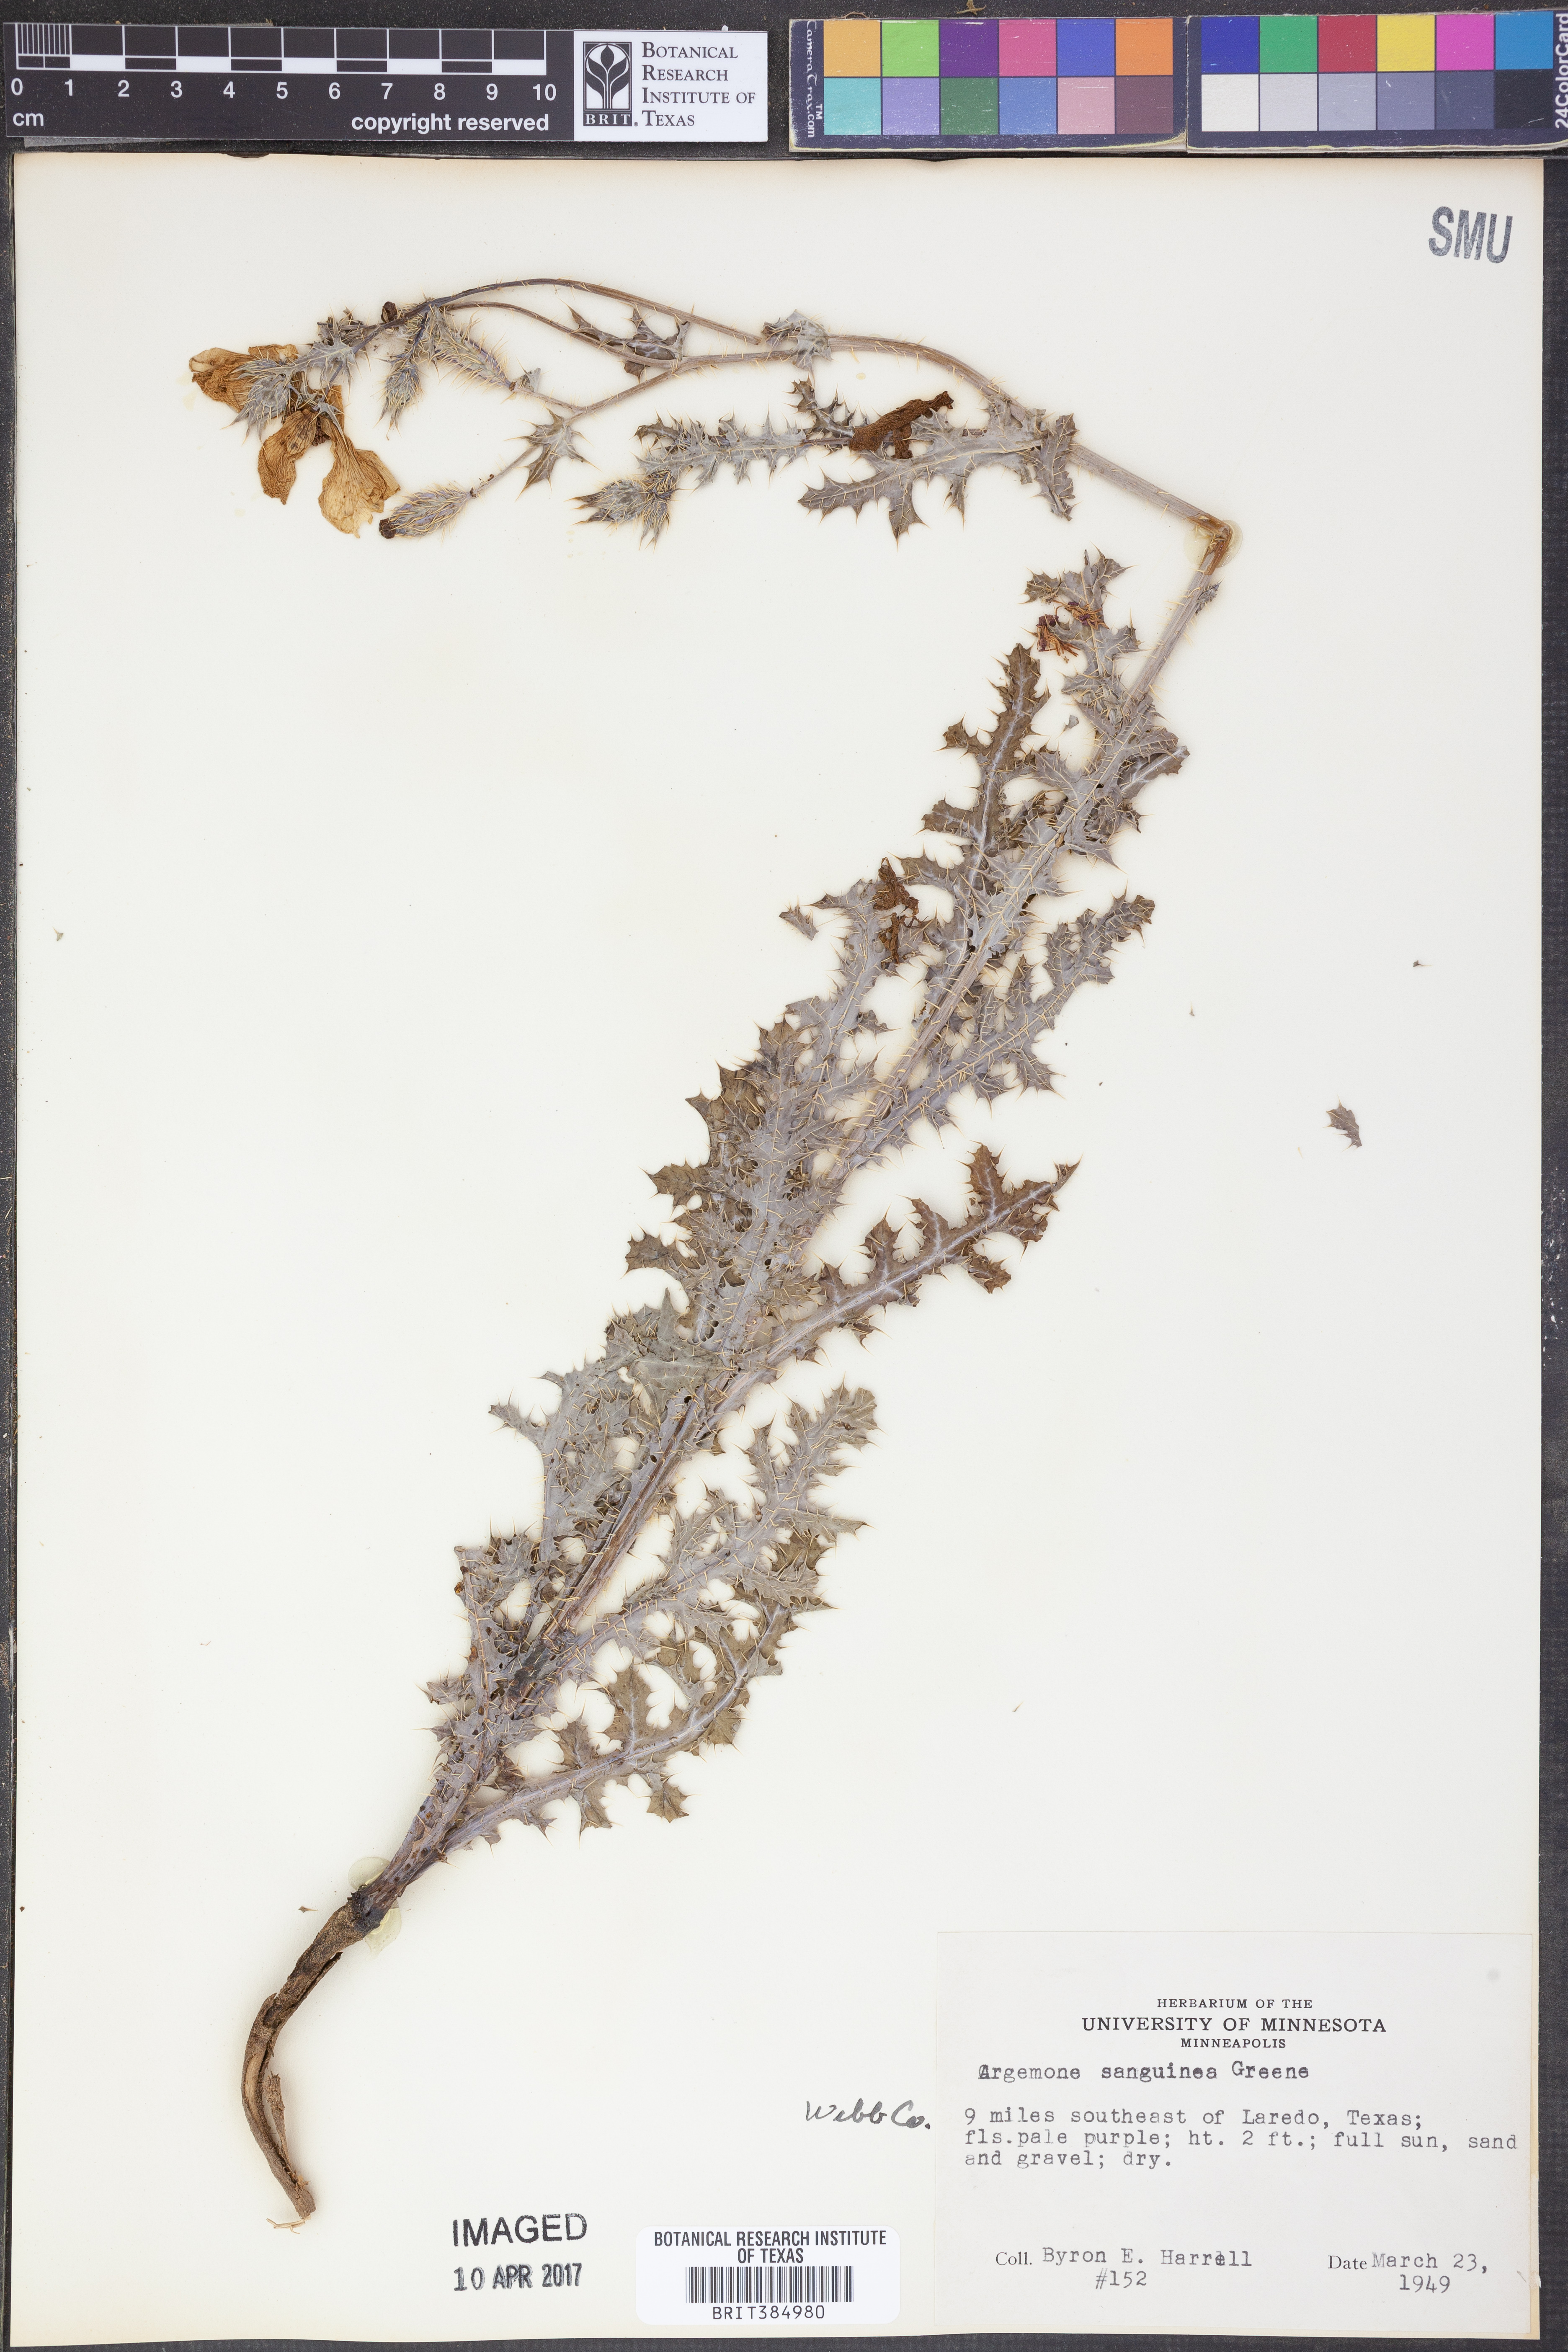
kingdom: Plantae
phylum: Tracheophyta
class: Magnoliopsida
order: Ranunculales
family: Papaveraceae
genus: Argemone
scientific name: Argemone sanguinea
